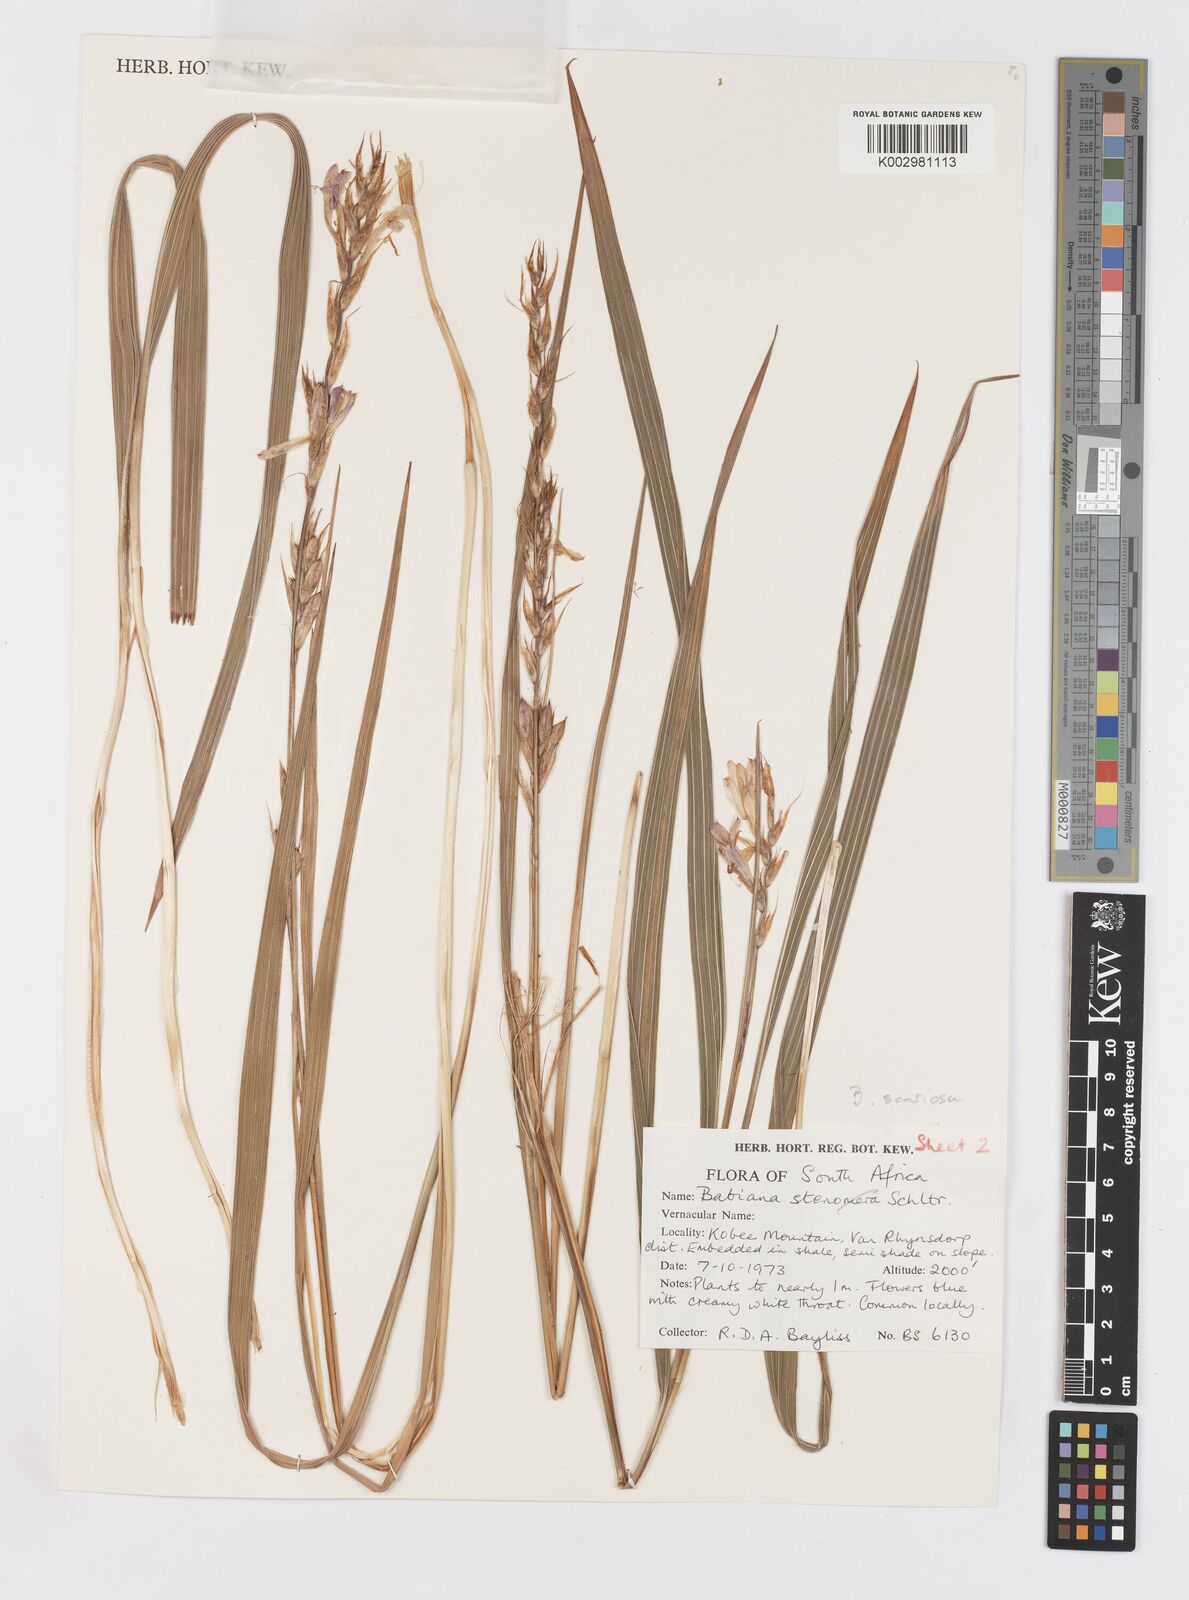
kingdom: Plantae
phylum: Tracheophyta
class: Liliopsida
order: Asparagales
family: Iridaceae
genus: Babiana
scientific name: Babiana scariosa
